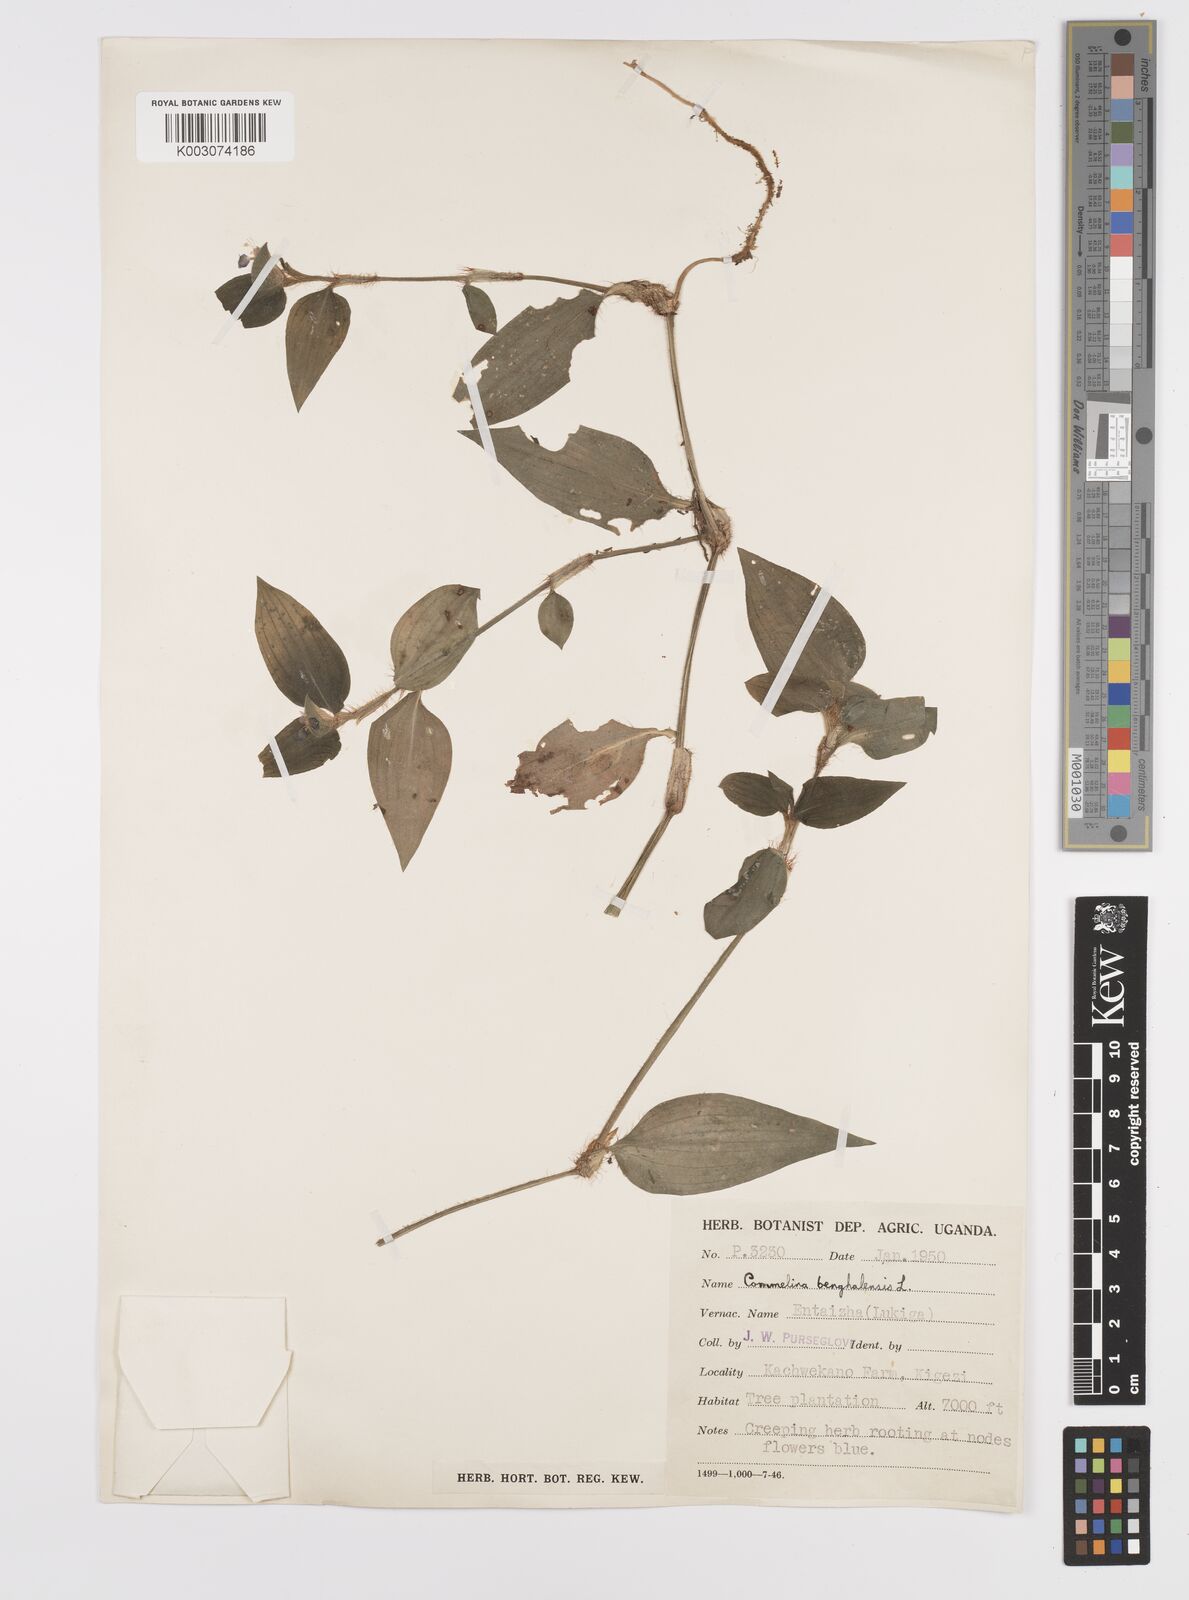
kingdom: Plantae
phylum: Tracheophyta
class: Liliopsida
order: Commelinales
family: Commelinaceae
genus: Commelina
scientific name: Commelina benghalensis
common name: Jio
